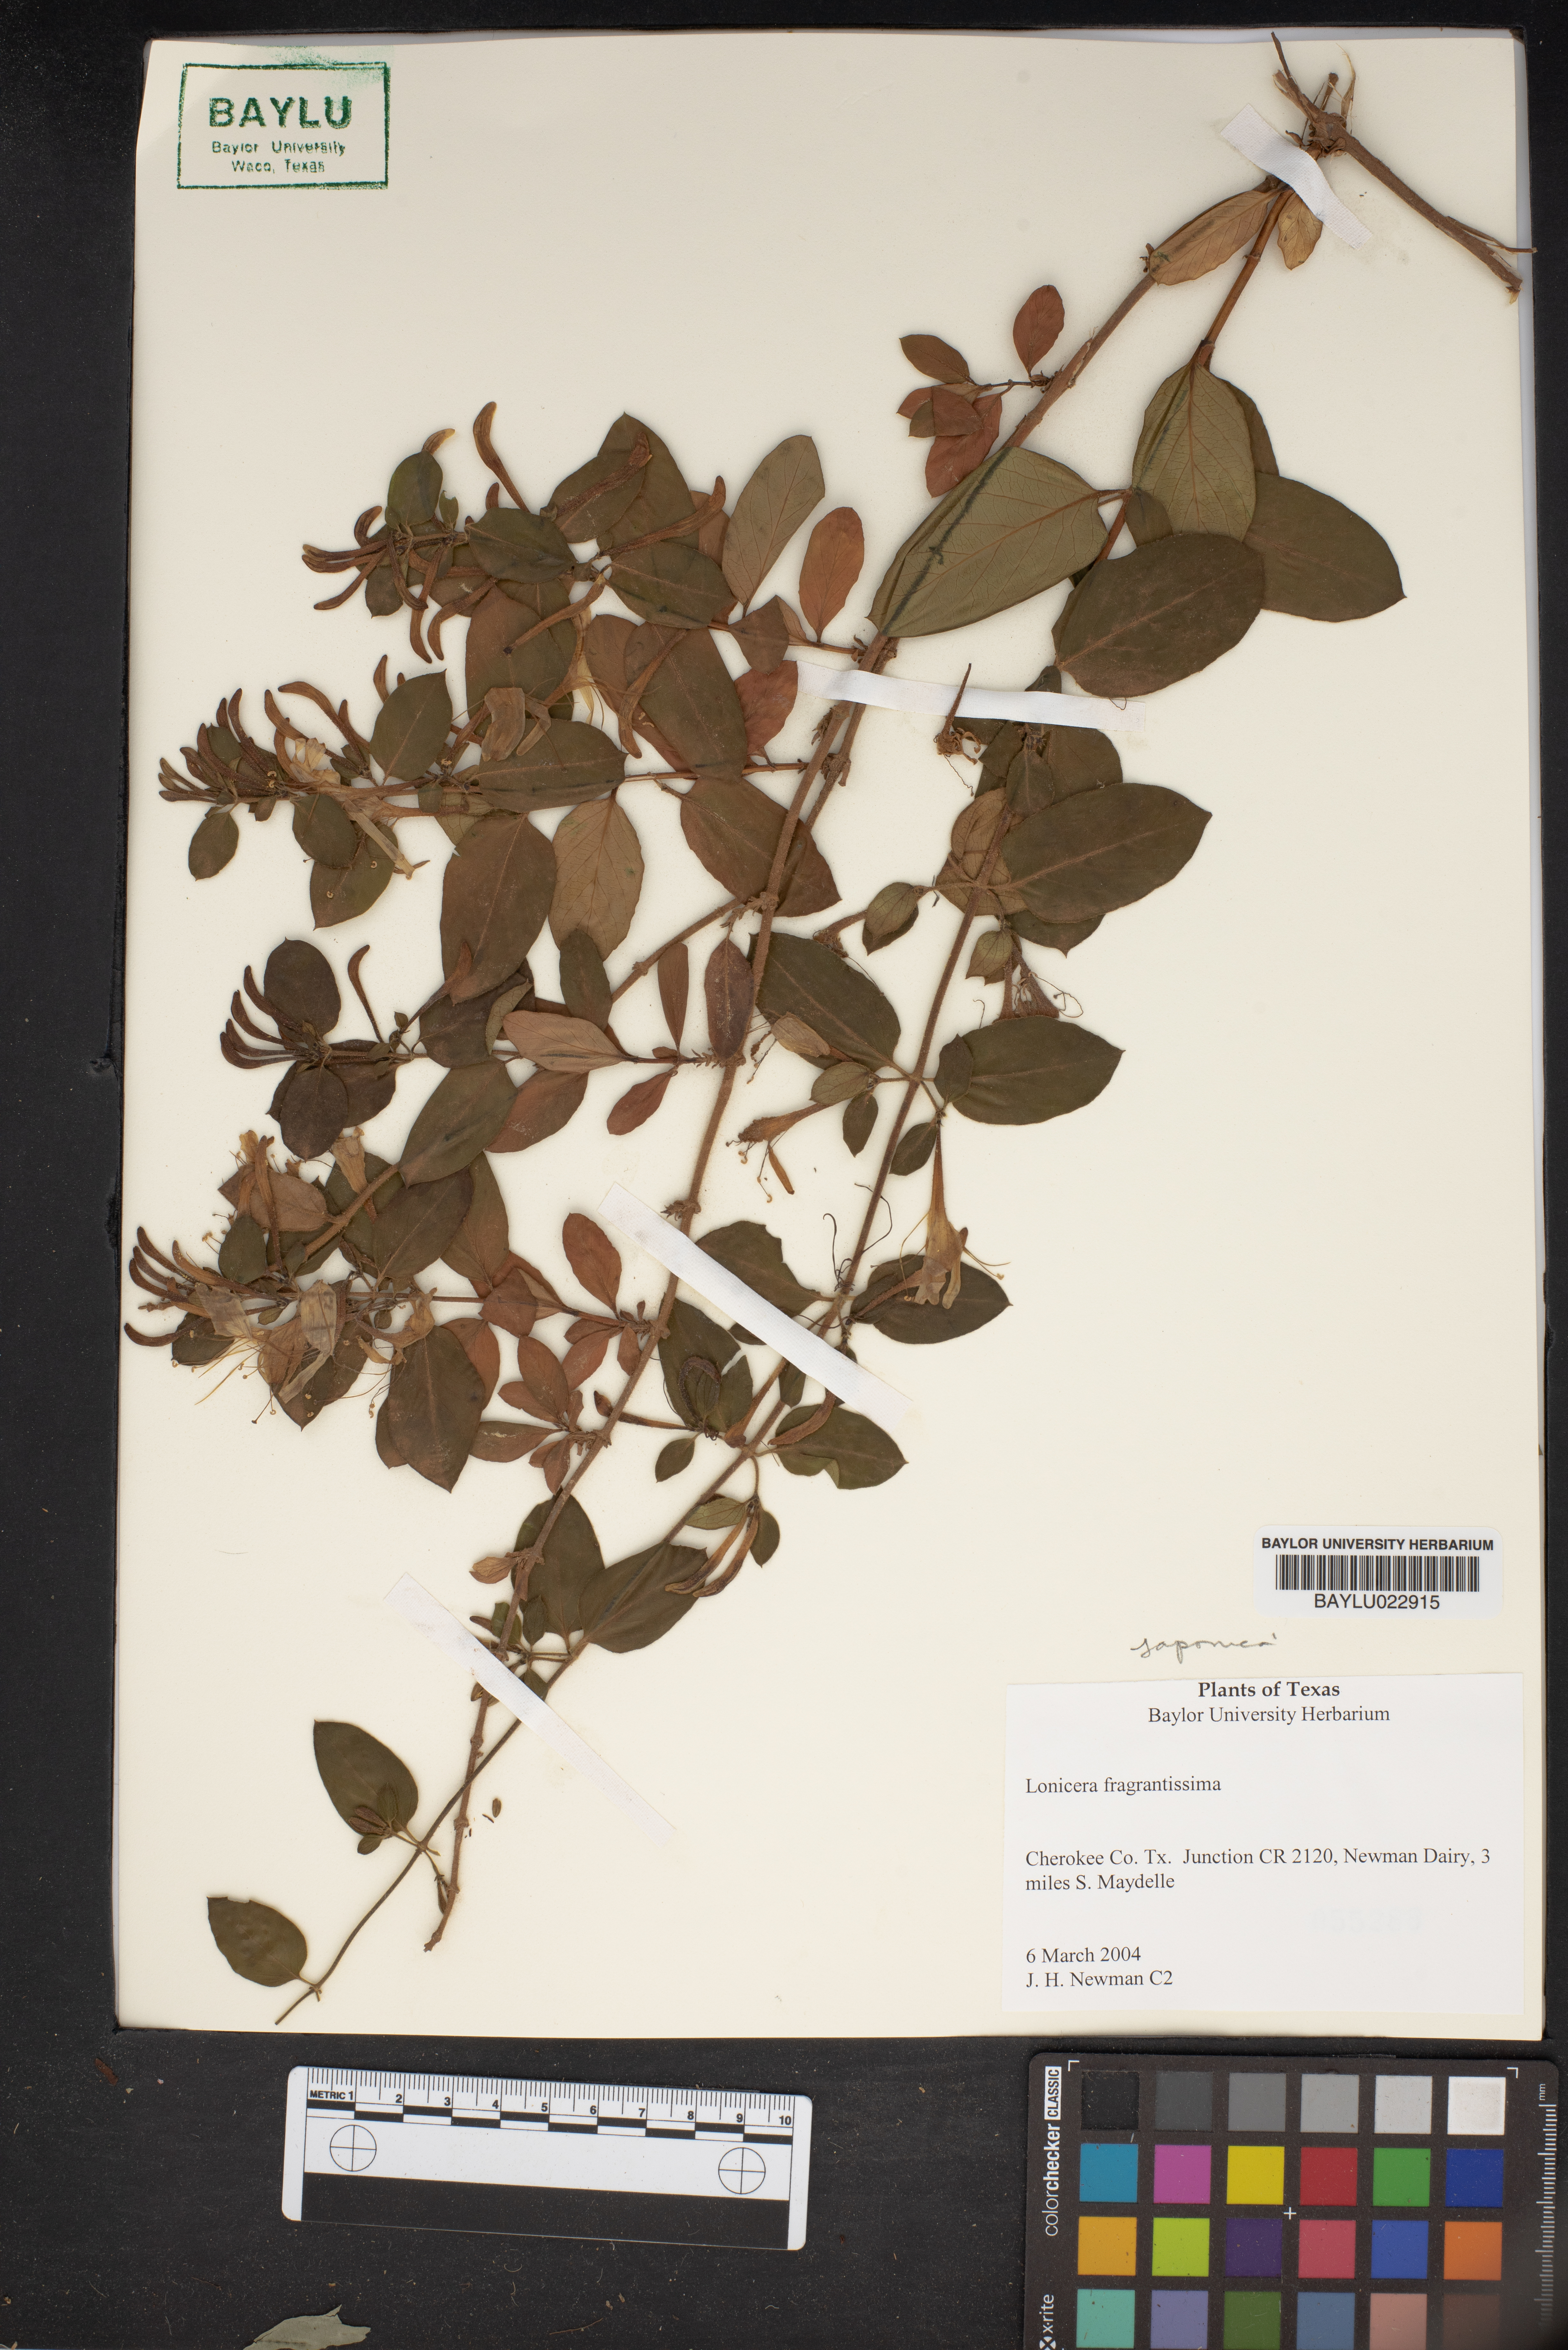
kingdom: Plantae
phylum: Tracheophyta
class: Magnoliopsida
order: Dipsacales
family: Caprifoliaceae
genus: Lonicera
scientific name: Lonicera fragrantissima
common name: Fragrant honeysuckle
